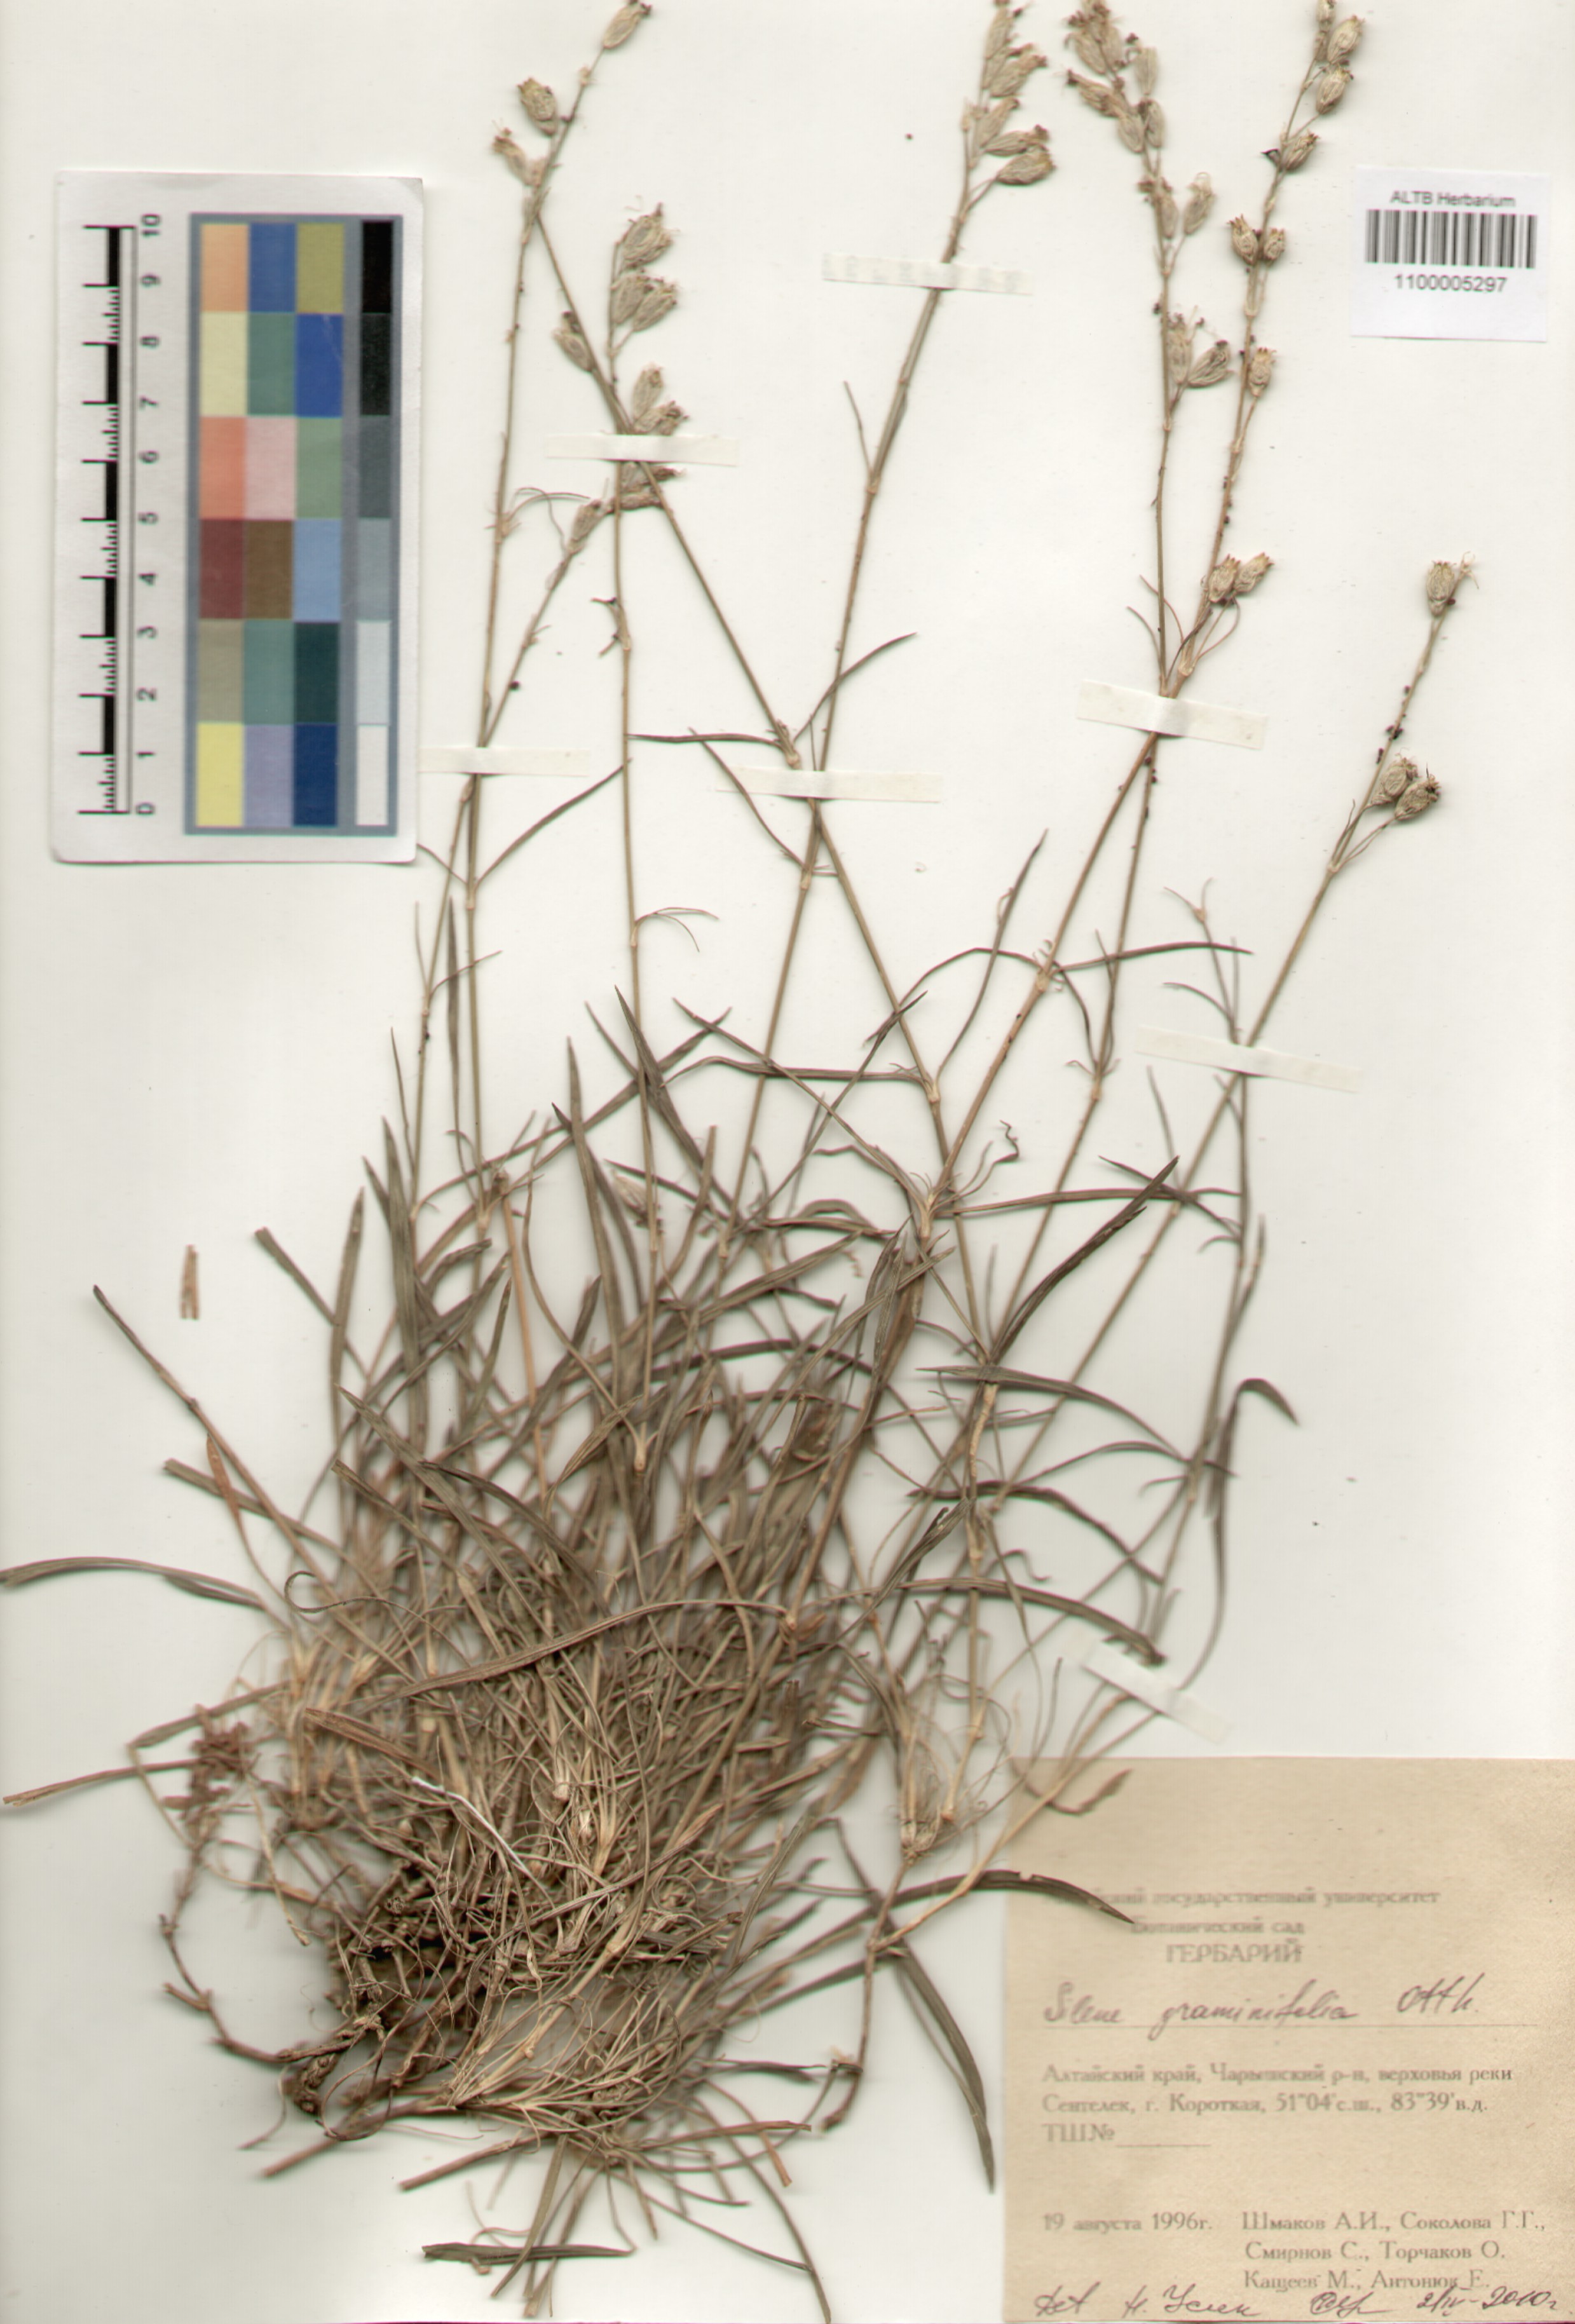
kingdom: Plantae
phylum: Tracheophyta
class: Magnoliopsida
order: Caryophyllales
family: Caryophyllaceae
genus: Silene
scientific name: Silene graminifolia
